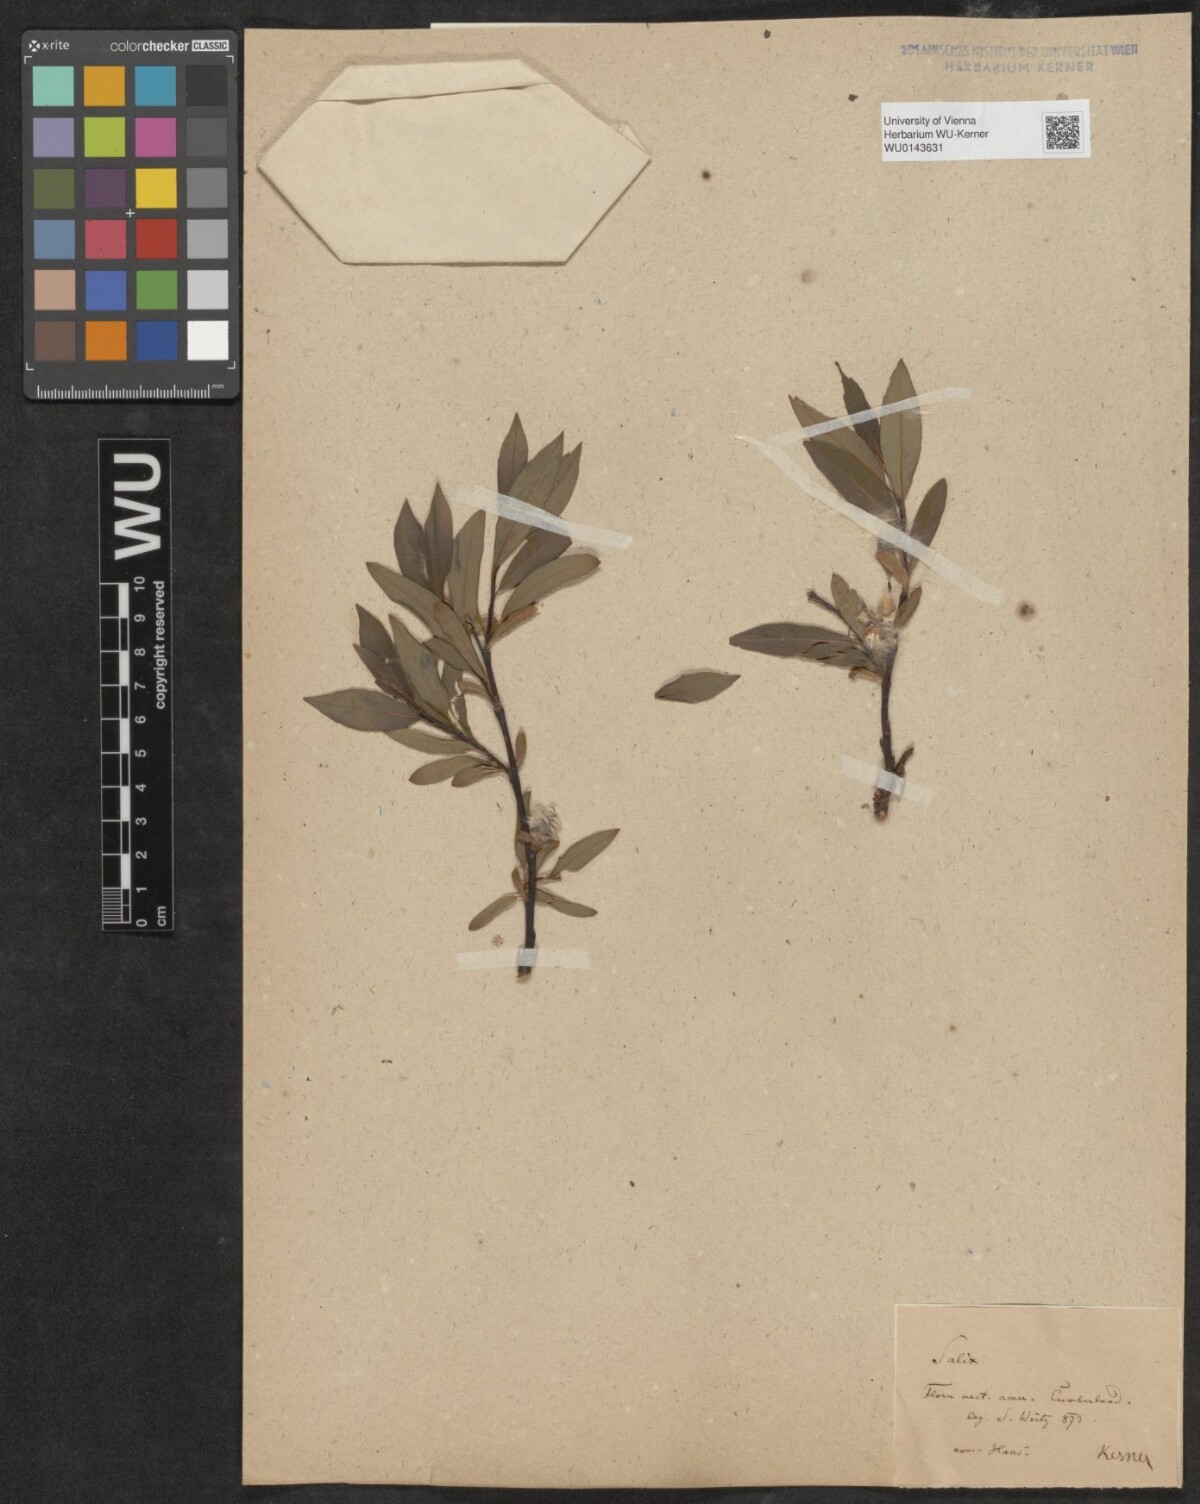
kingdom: Plantae
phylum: Tracheophyta
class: Magnoliopsida
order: Malpighiales
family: Salicaceae
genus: Salix
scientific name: Salix
